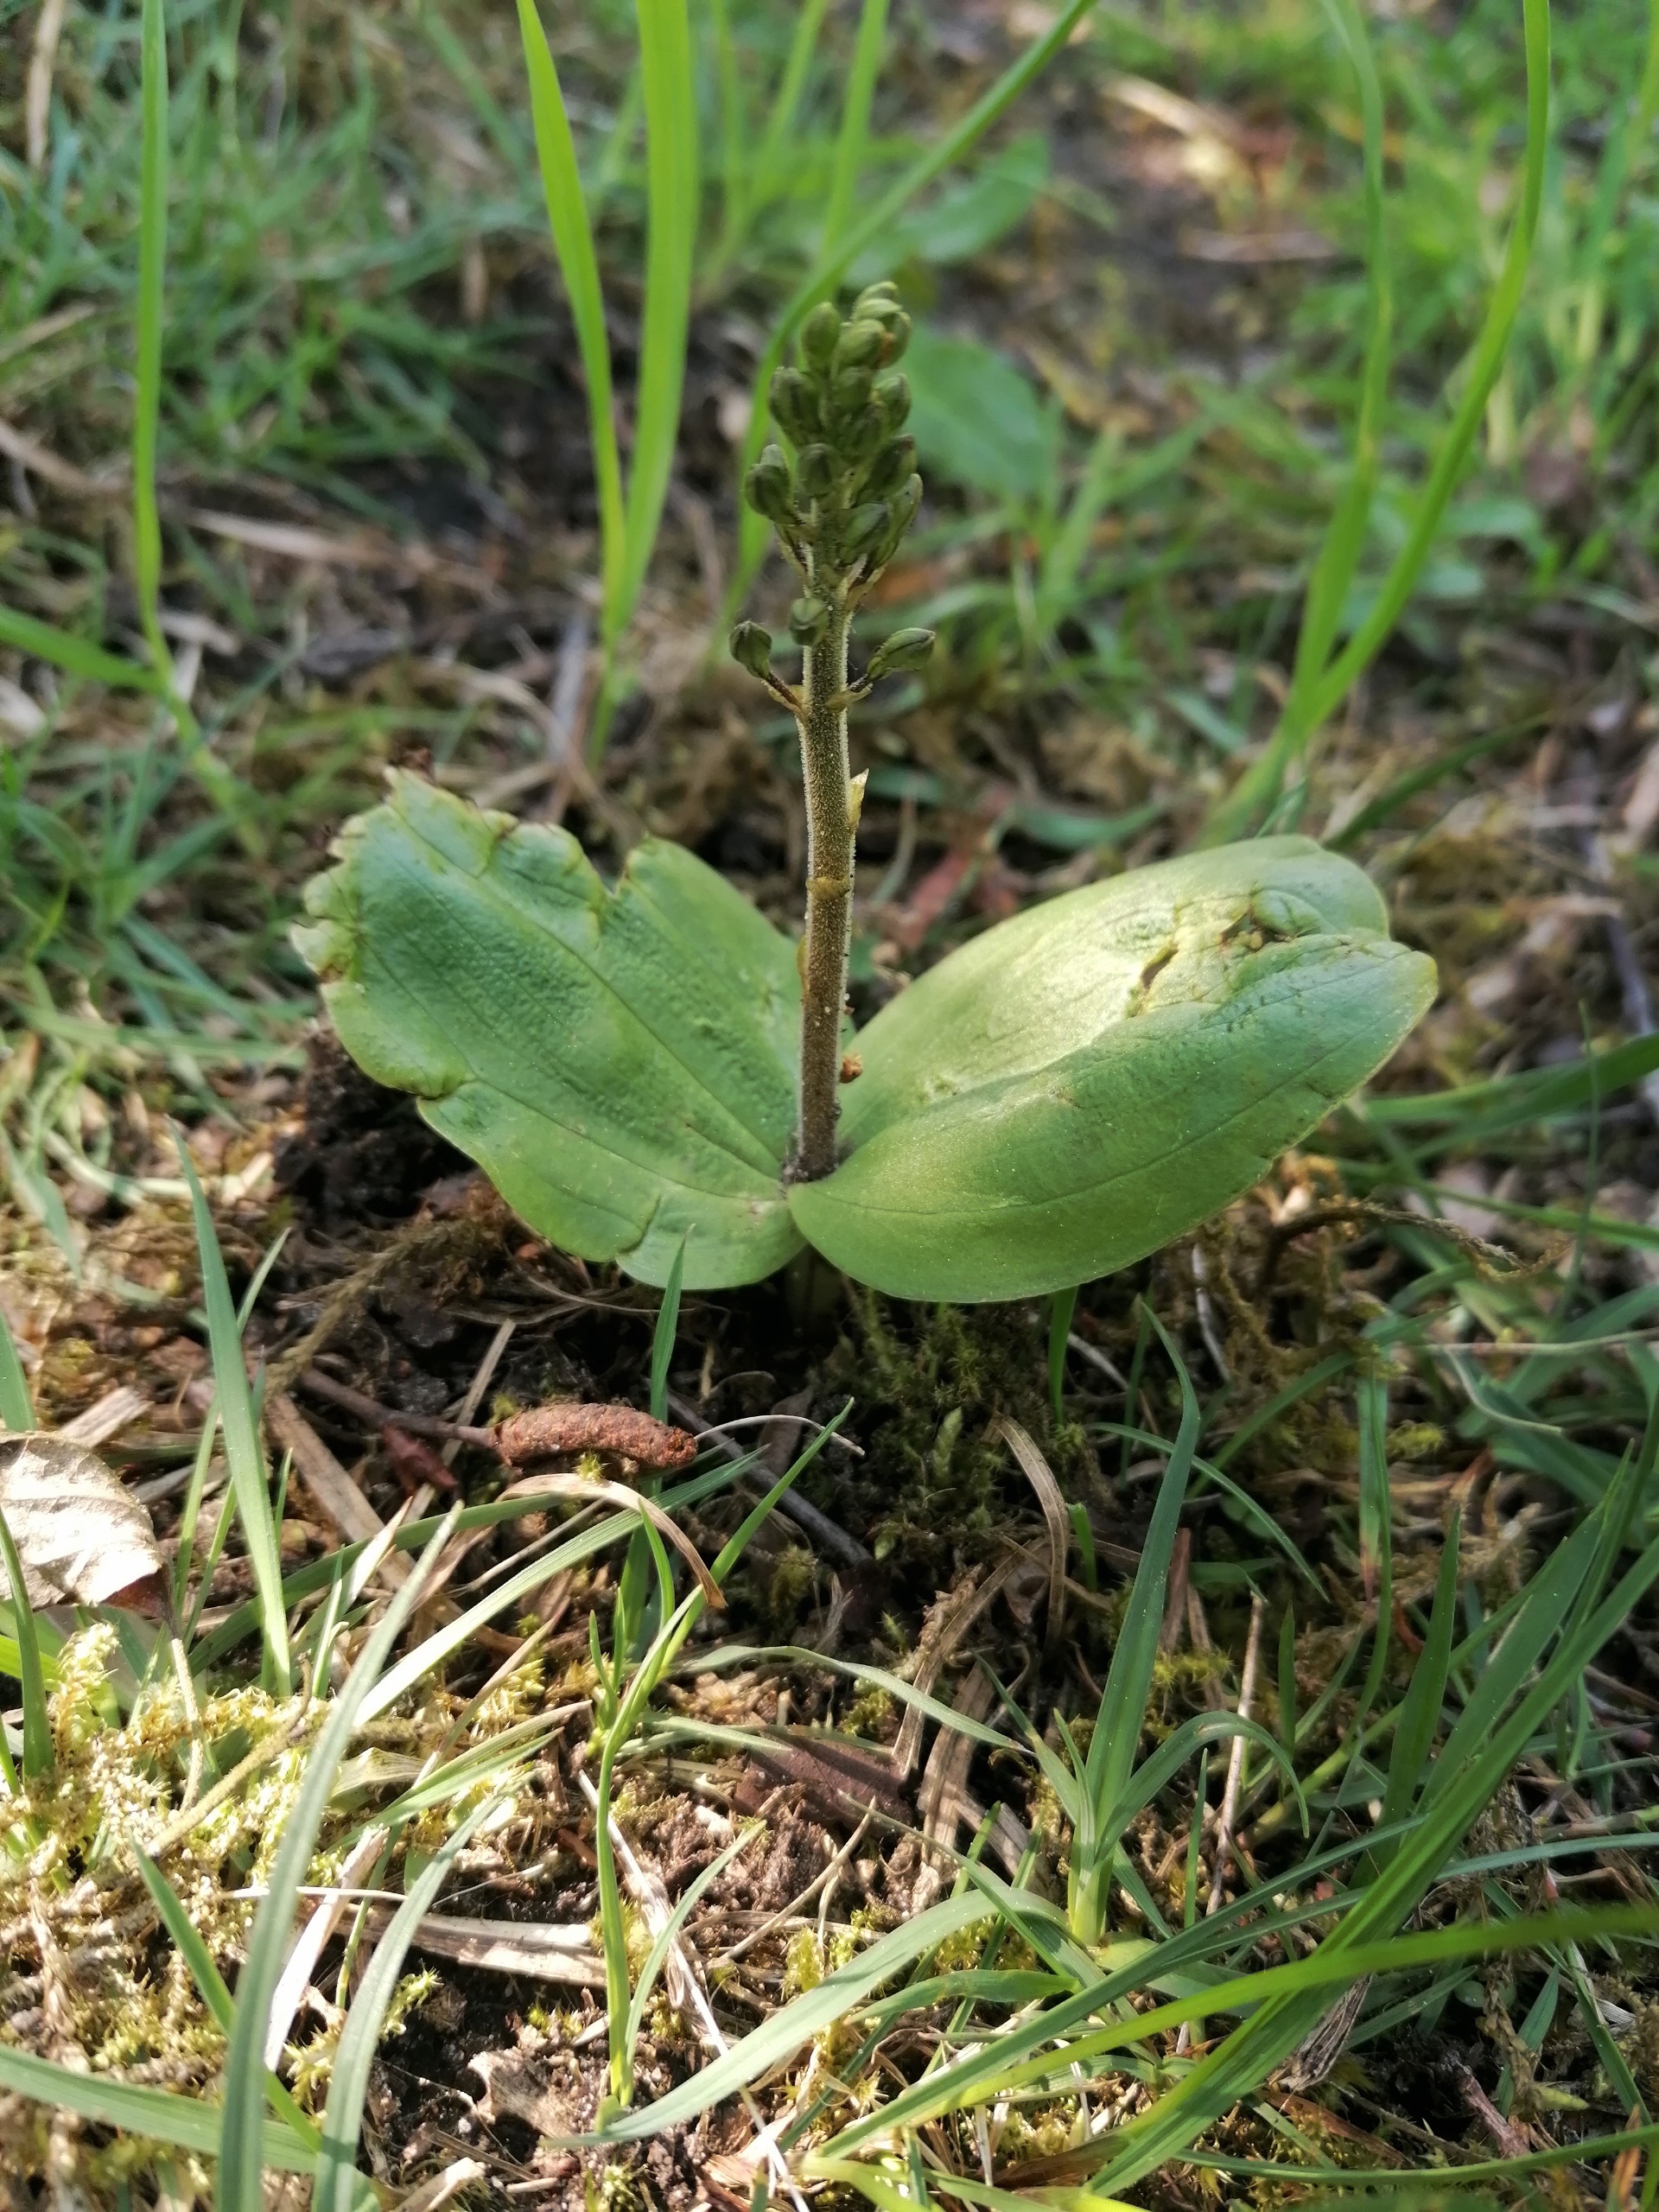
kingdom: Plantae
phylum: Tracheophyta
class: Liliopsida
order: Asparagales
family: Orchidaceae
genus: Neottia
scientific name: Neottia ovata
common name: Ægbladet fliglæbe
